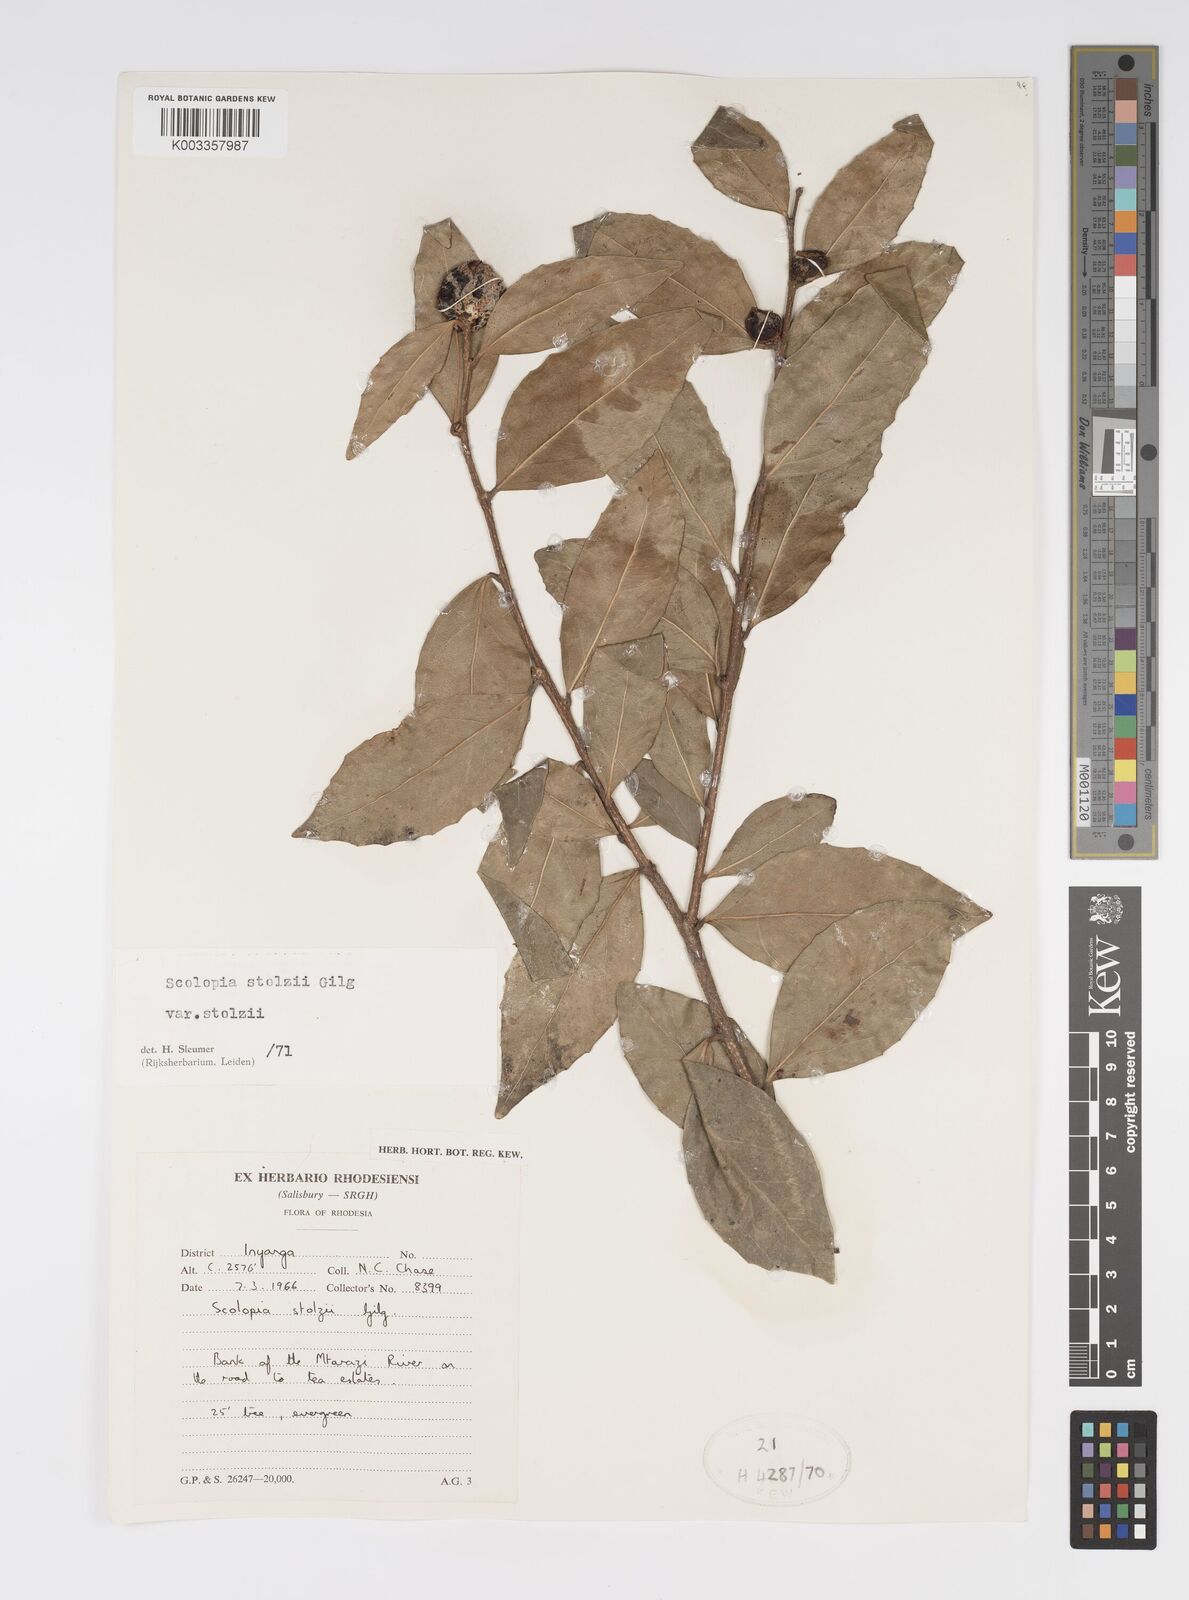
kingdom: Plantae
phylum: Tracheophyta
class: Magnoliopsida
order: Malpighiales
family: Salicaceae
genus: Scolopia
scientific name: Scolopia stolzii
